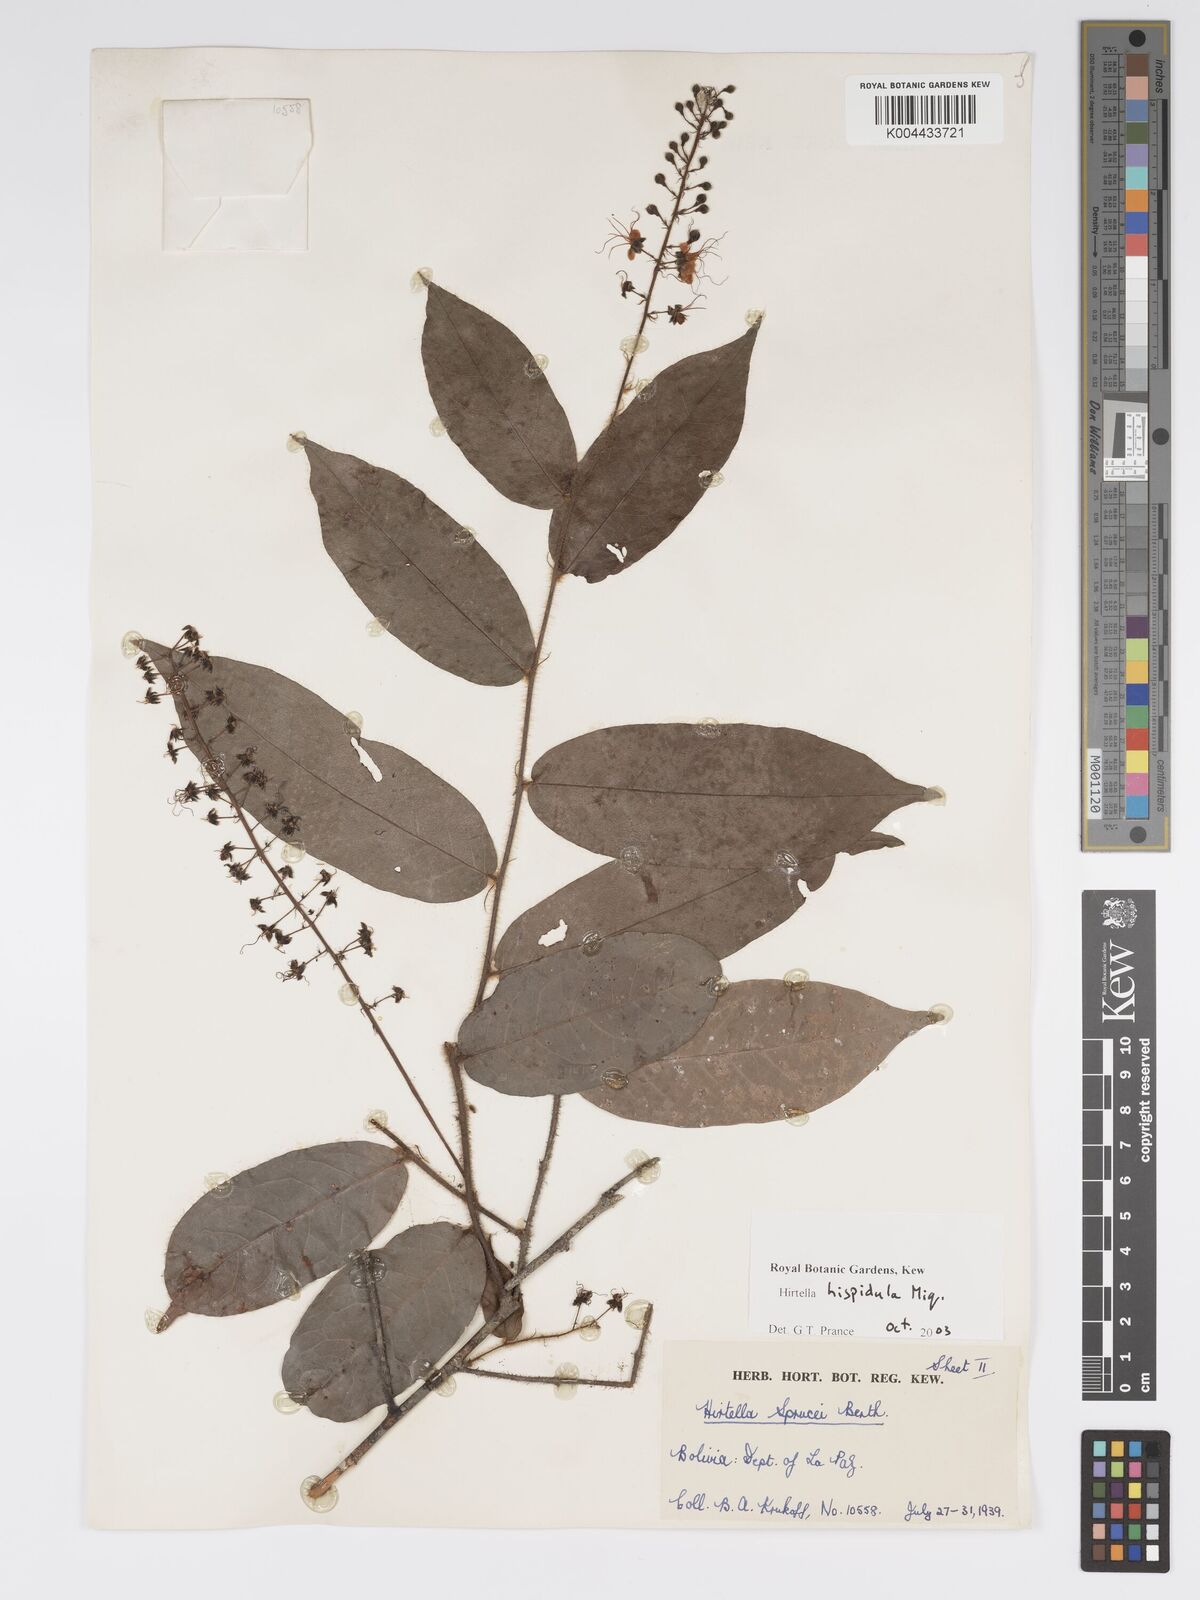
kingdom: Plantae
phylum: Tracheophyta
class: Magnoliopsida
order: Malpighiales
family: Chrysobalanaceae
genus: Hirtella
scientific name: Hirtella hispidula
